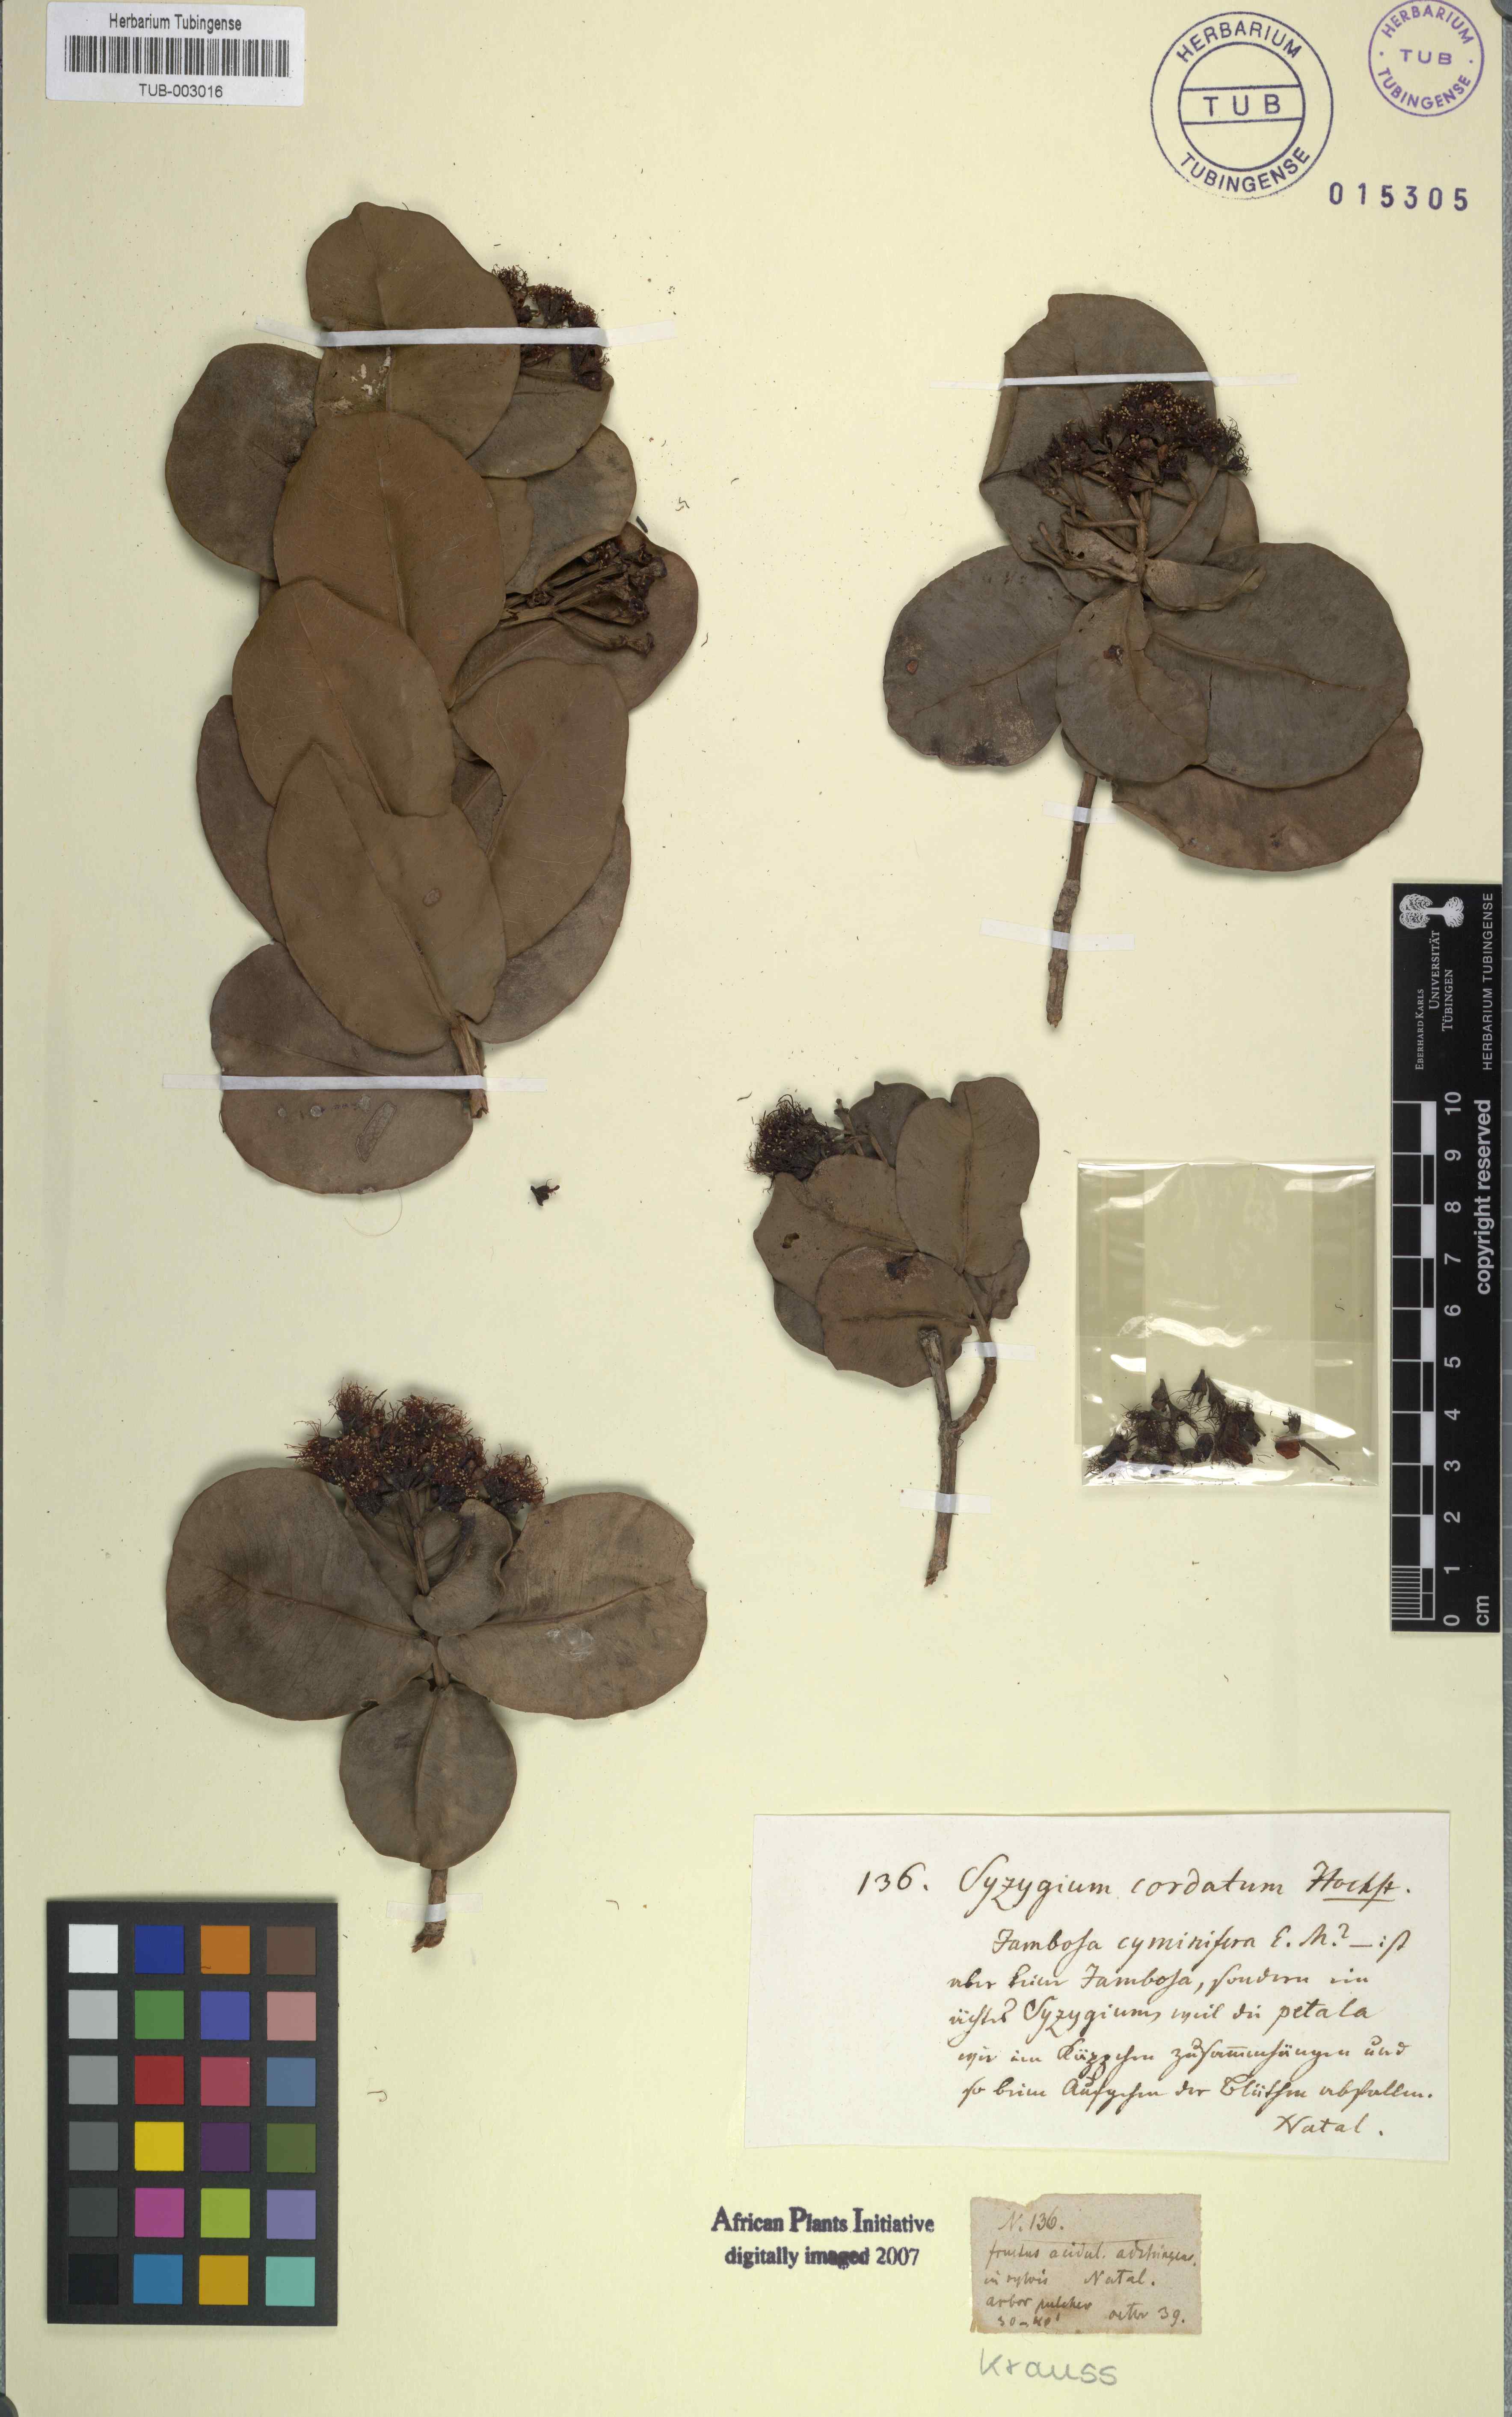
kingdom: Plantae
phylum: Tracheophyta
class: Magnoliopsida
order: Myrtales
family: Myrtaceae
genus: Syzygium
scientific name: Syzygium cordatum
